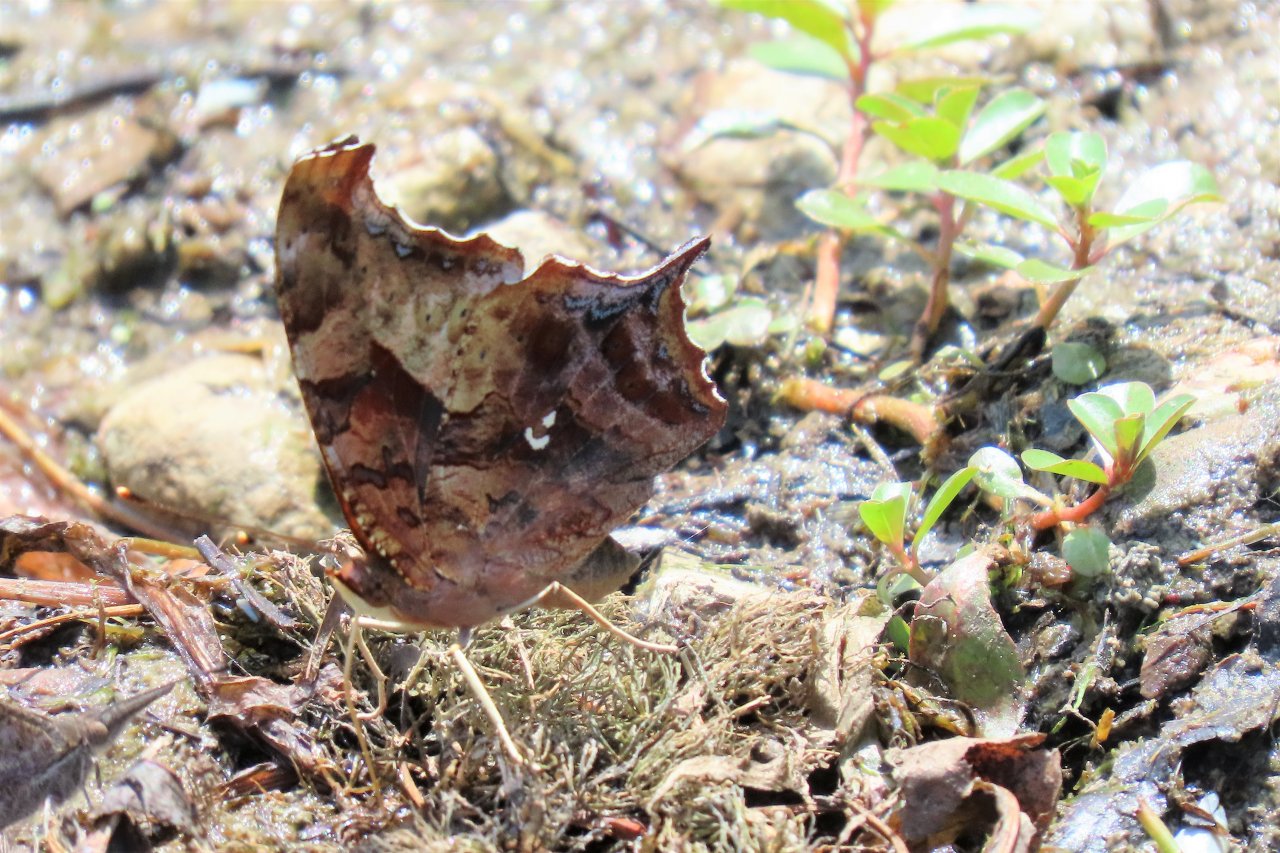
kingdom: Animalia
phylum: Arthropoda
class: Insecta
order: Lepidoptera
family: Nymphalidae
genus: Polygonia
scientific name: Polygonia interrogationis
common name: Question Mark
